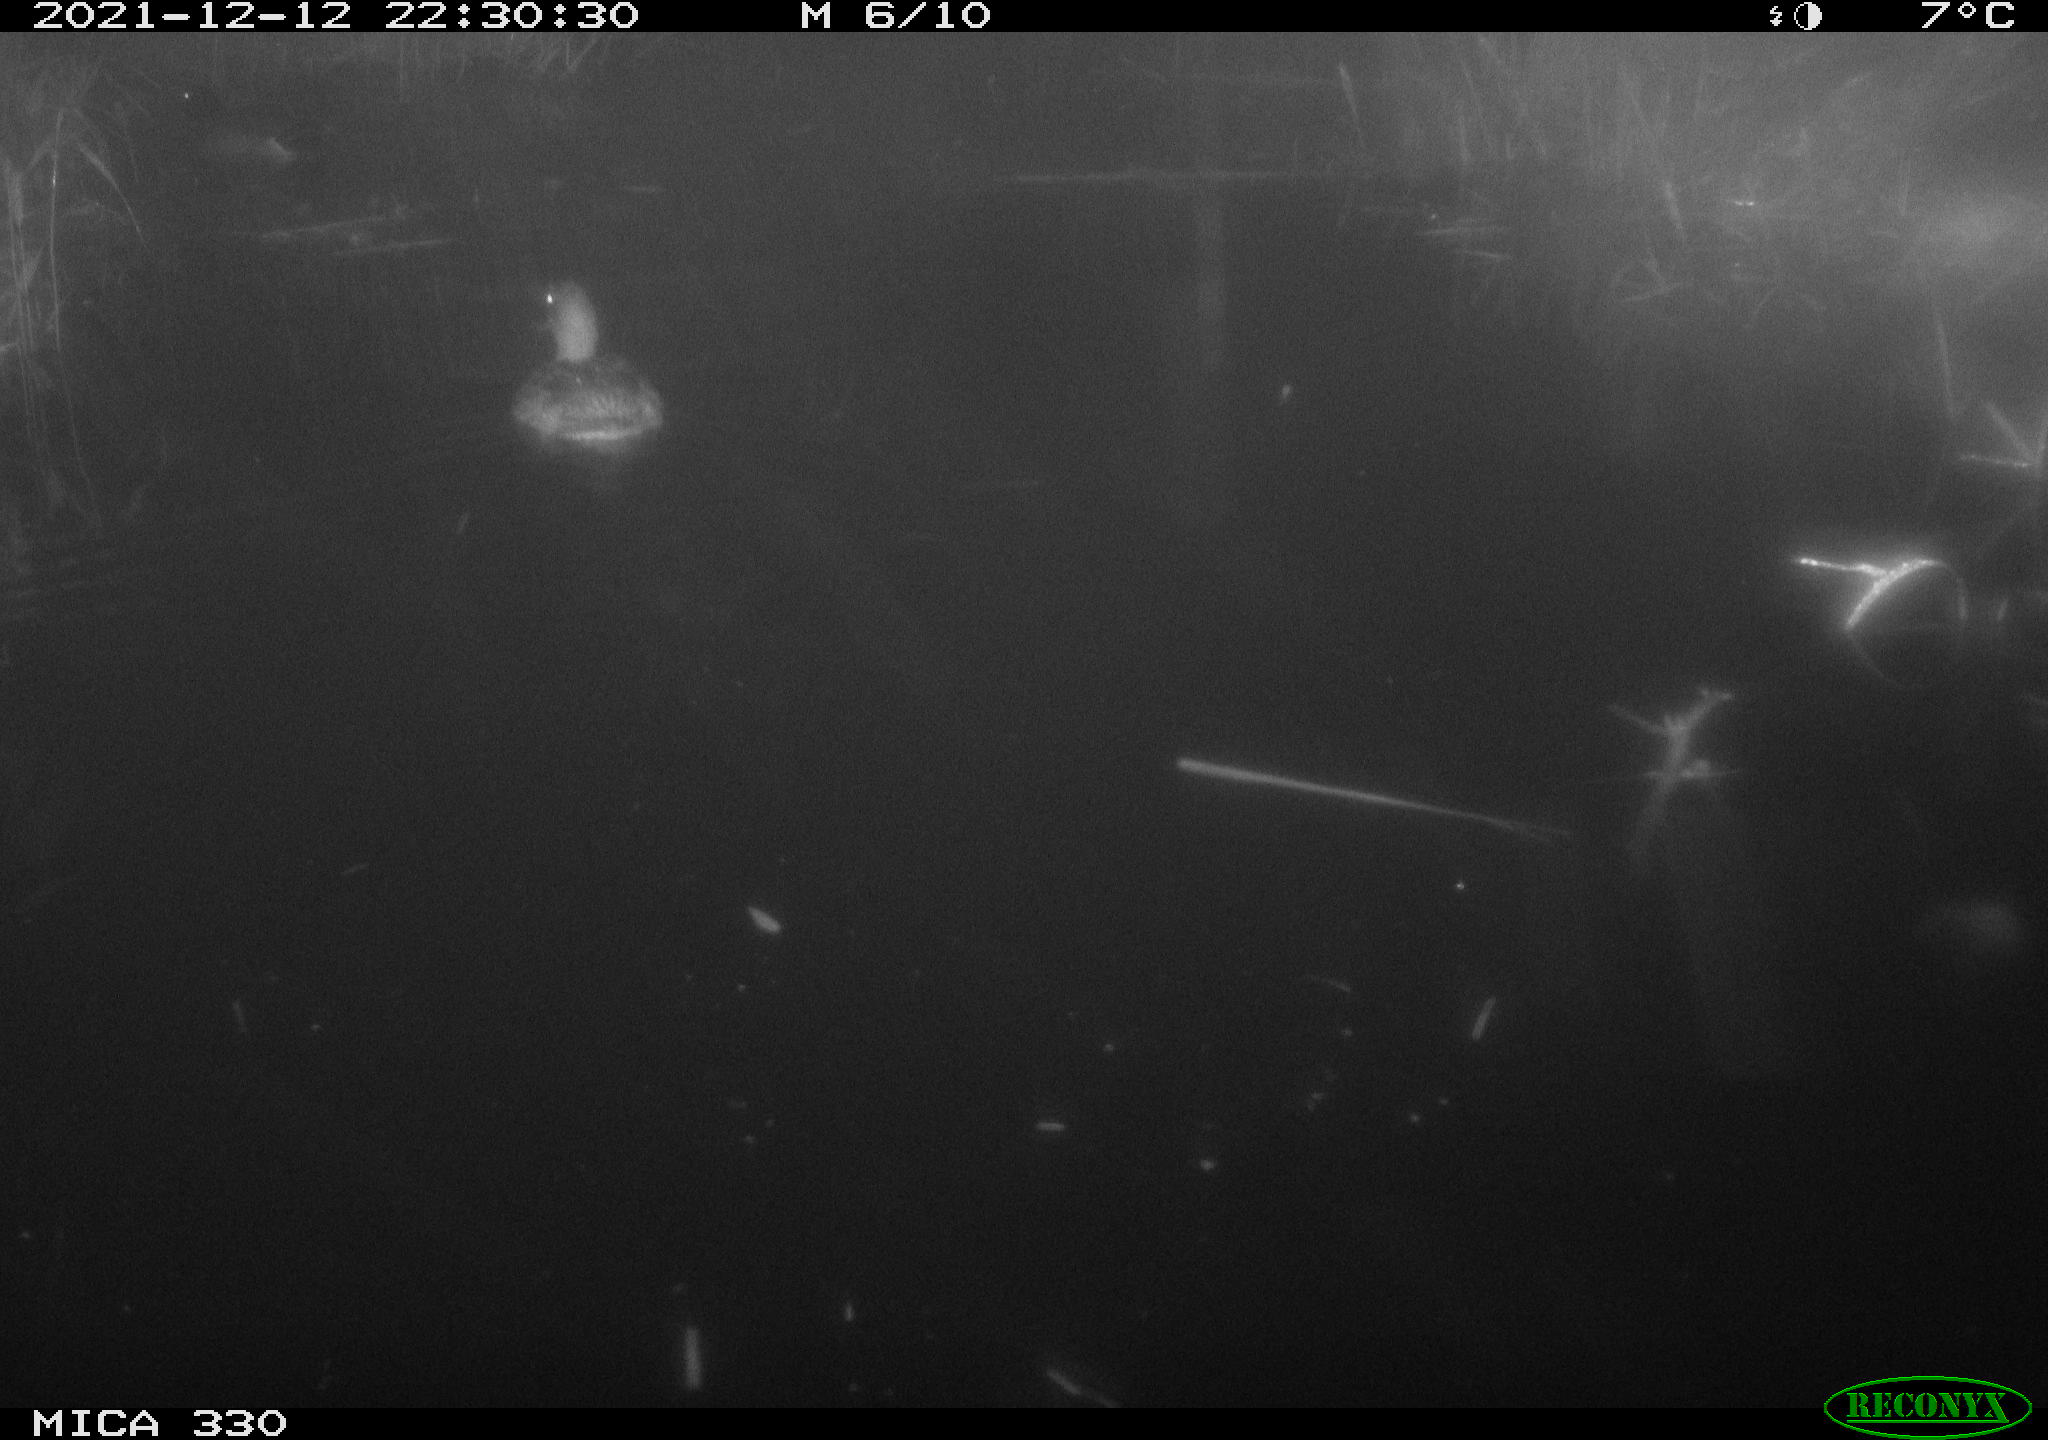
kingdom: Animalia
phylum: Chordata
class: Aves
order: Anseriformes
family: Anatidae
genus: Anas
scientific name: Anas platyrhynchos
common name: Mallard
